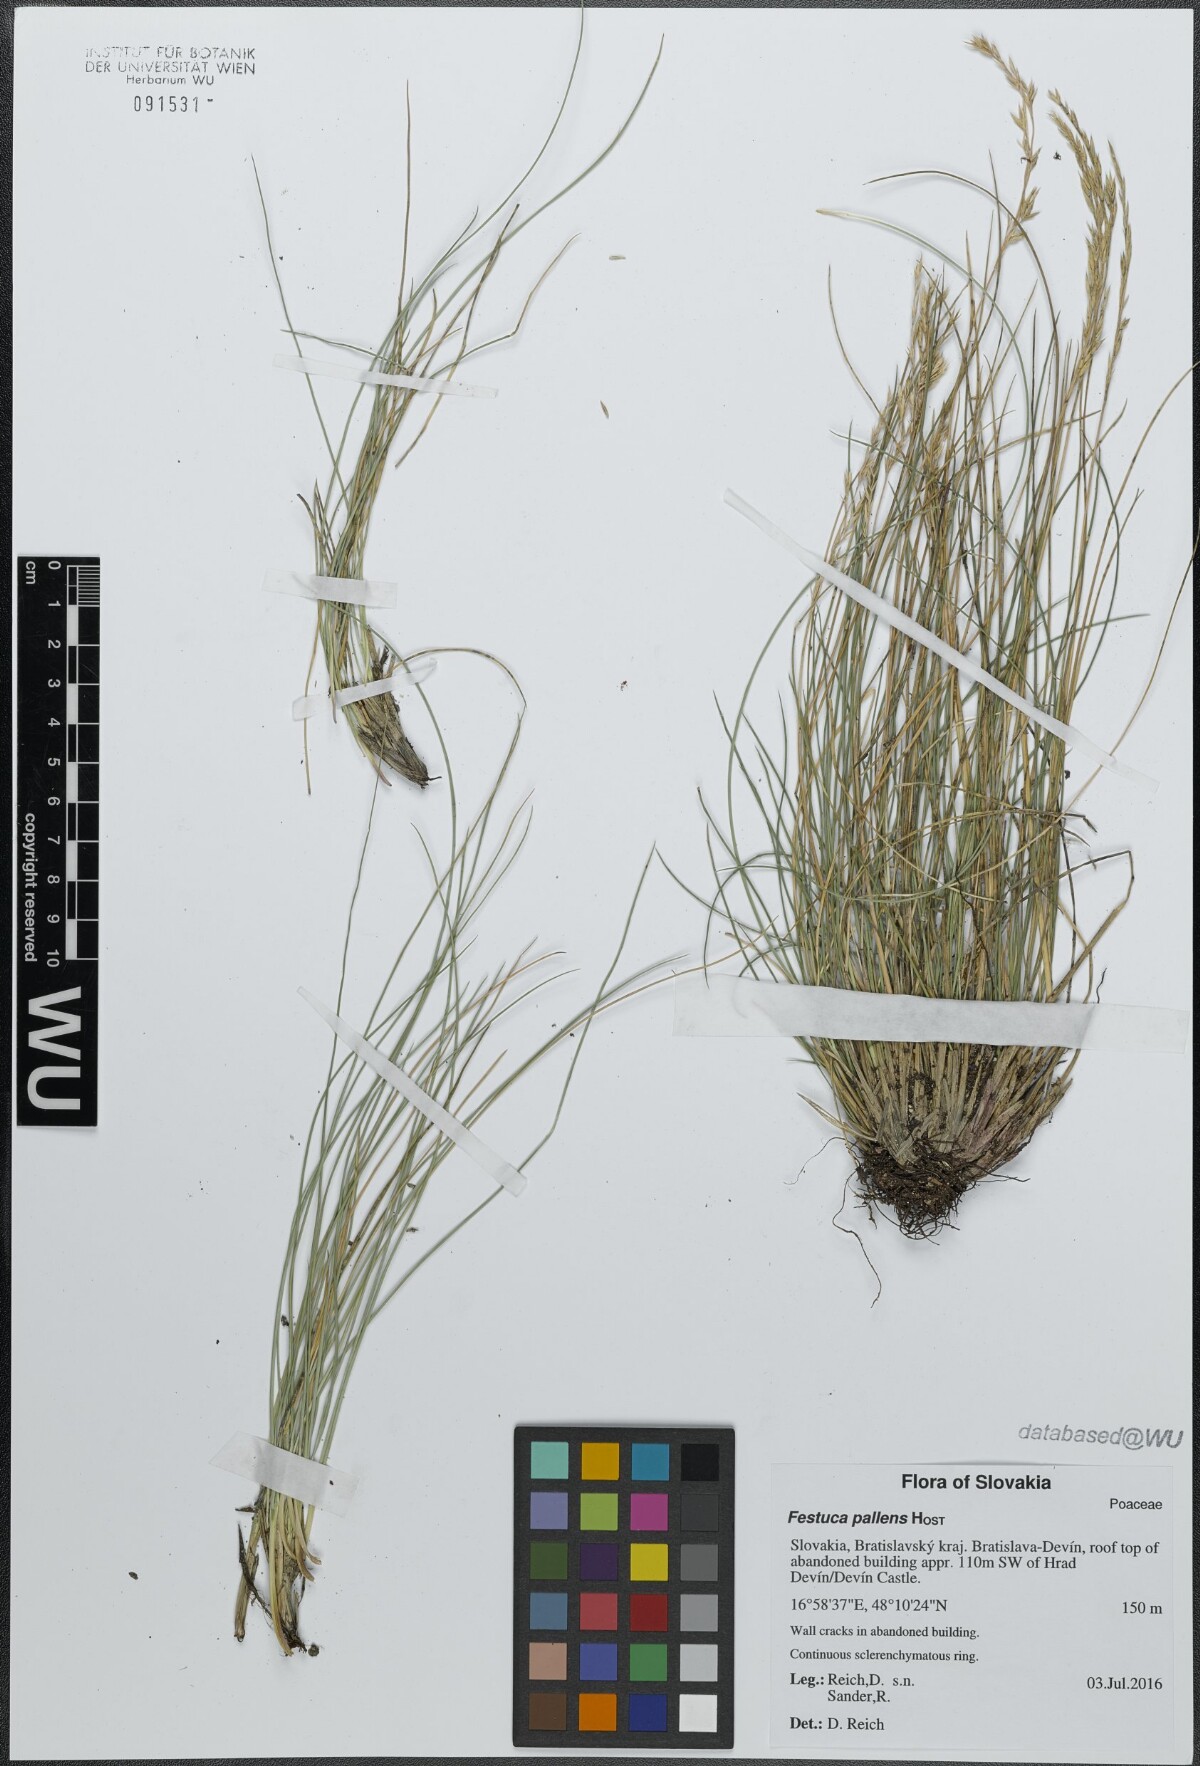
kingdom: Plantae
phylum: Tracheophyta
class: Liliopsida
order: Poales
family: Poaceae
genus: Festuca
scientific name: Festuca pallens
